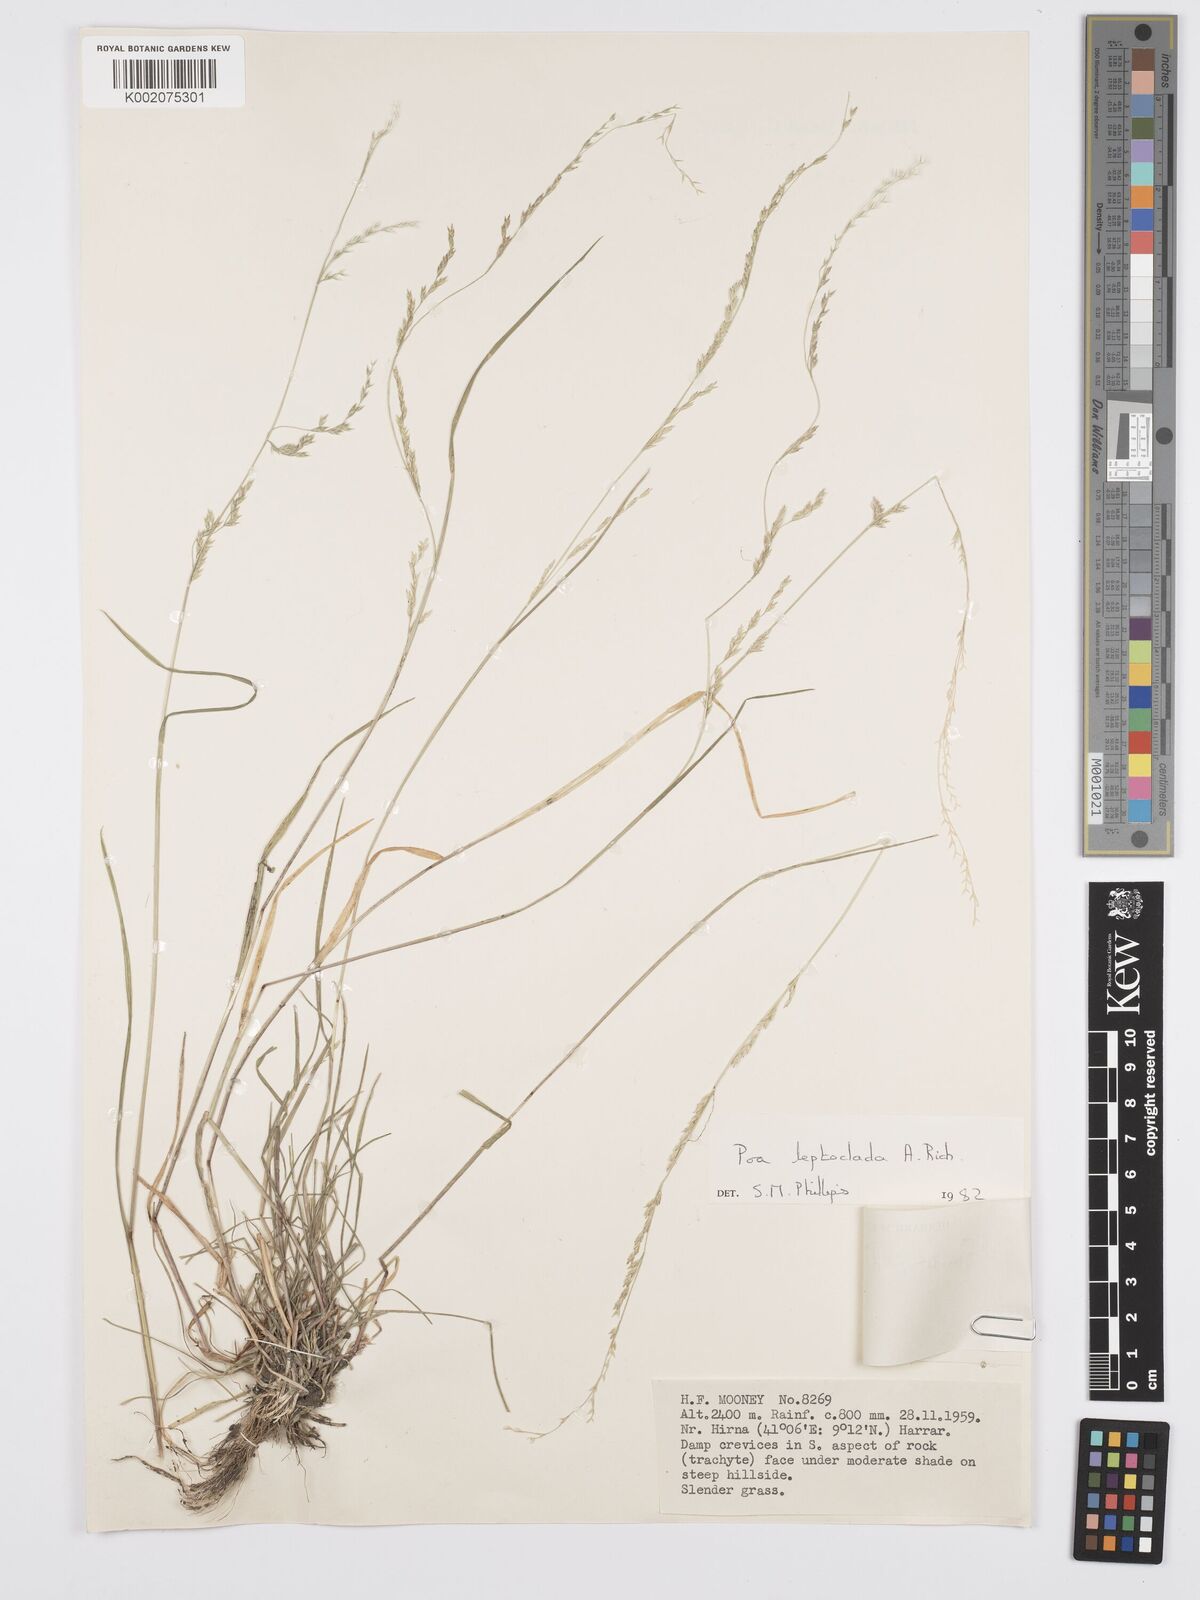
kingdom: Plantae
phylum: Tracheophyta
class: Liliopsida
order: Poales
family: Poaceae
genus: Poa
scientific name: Poa leptoclada
